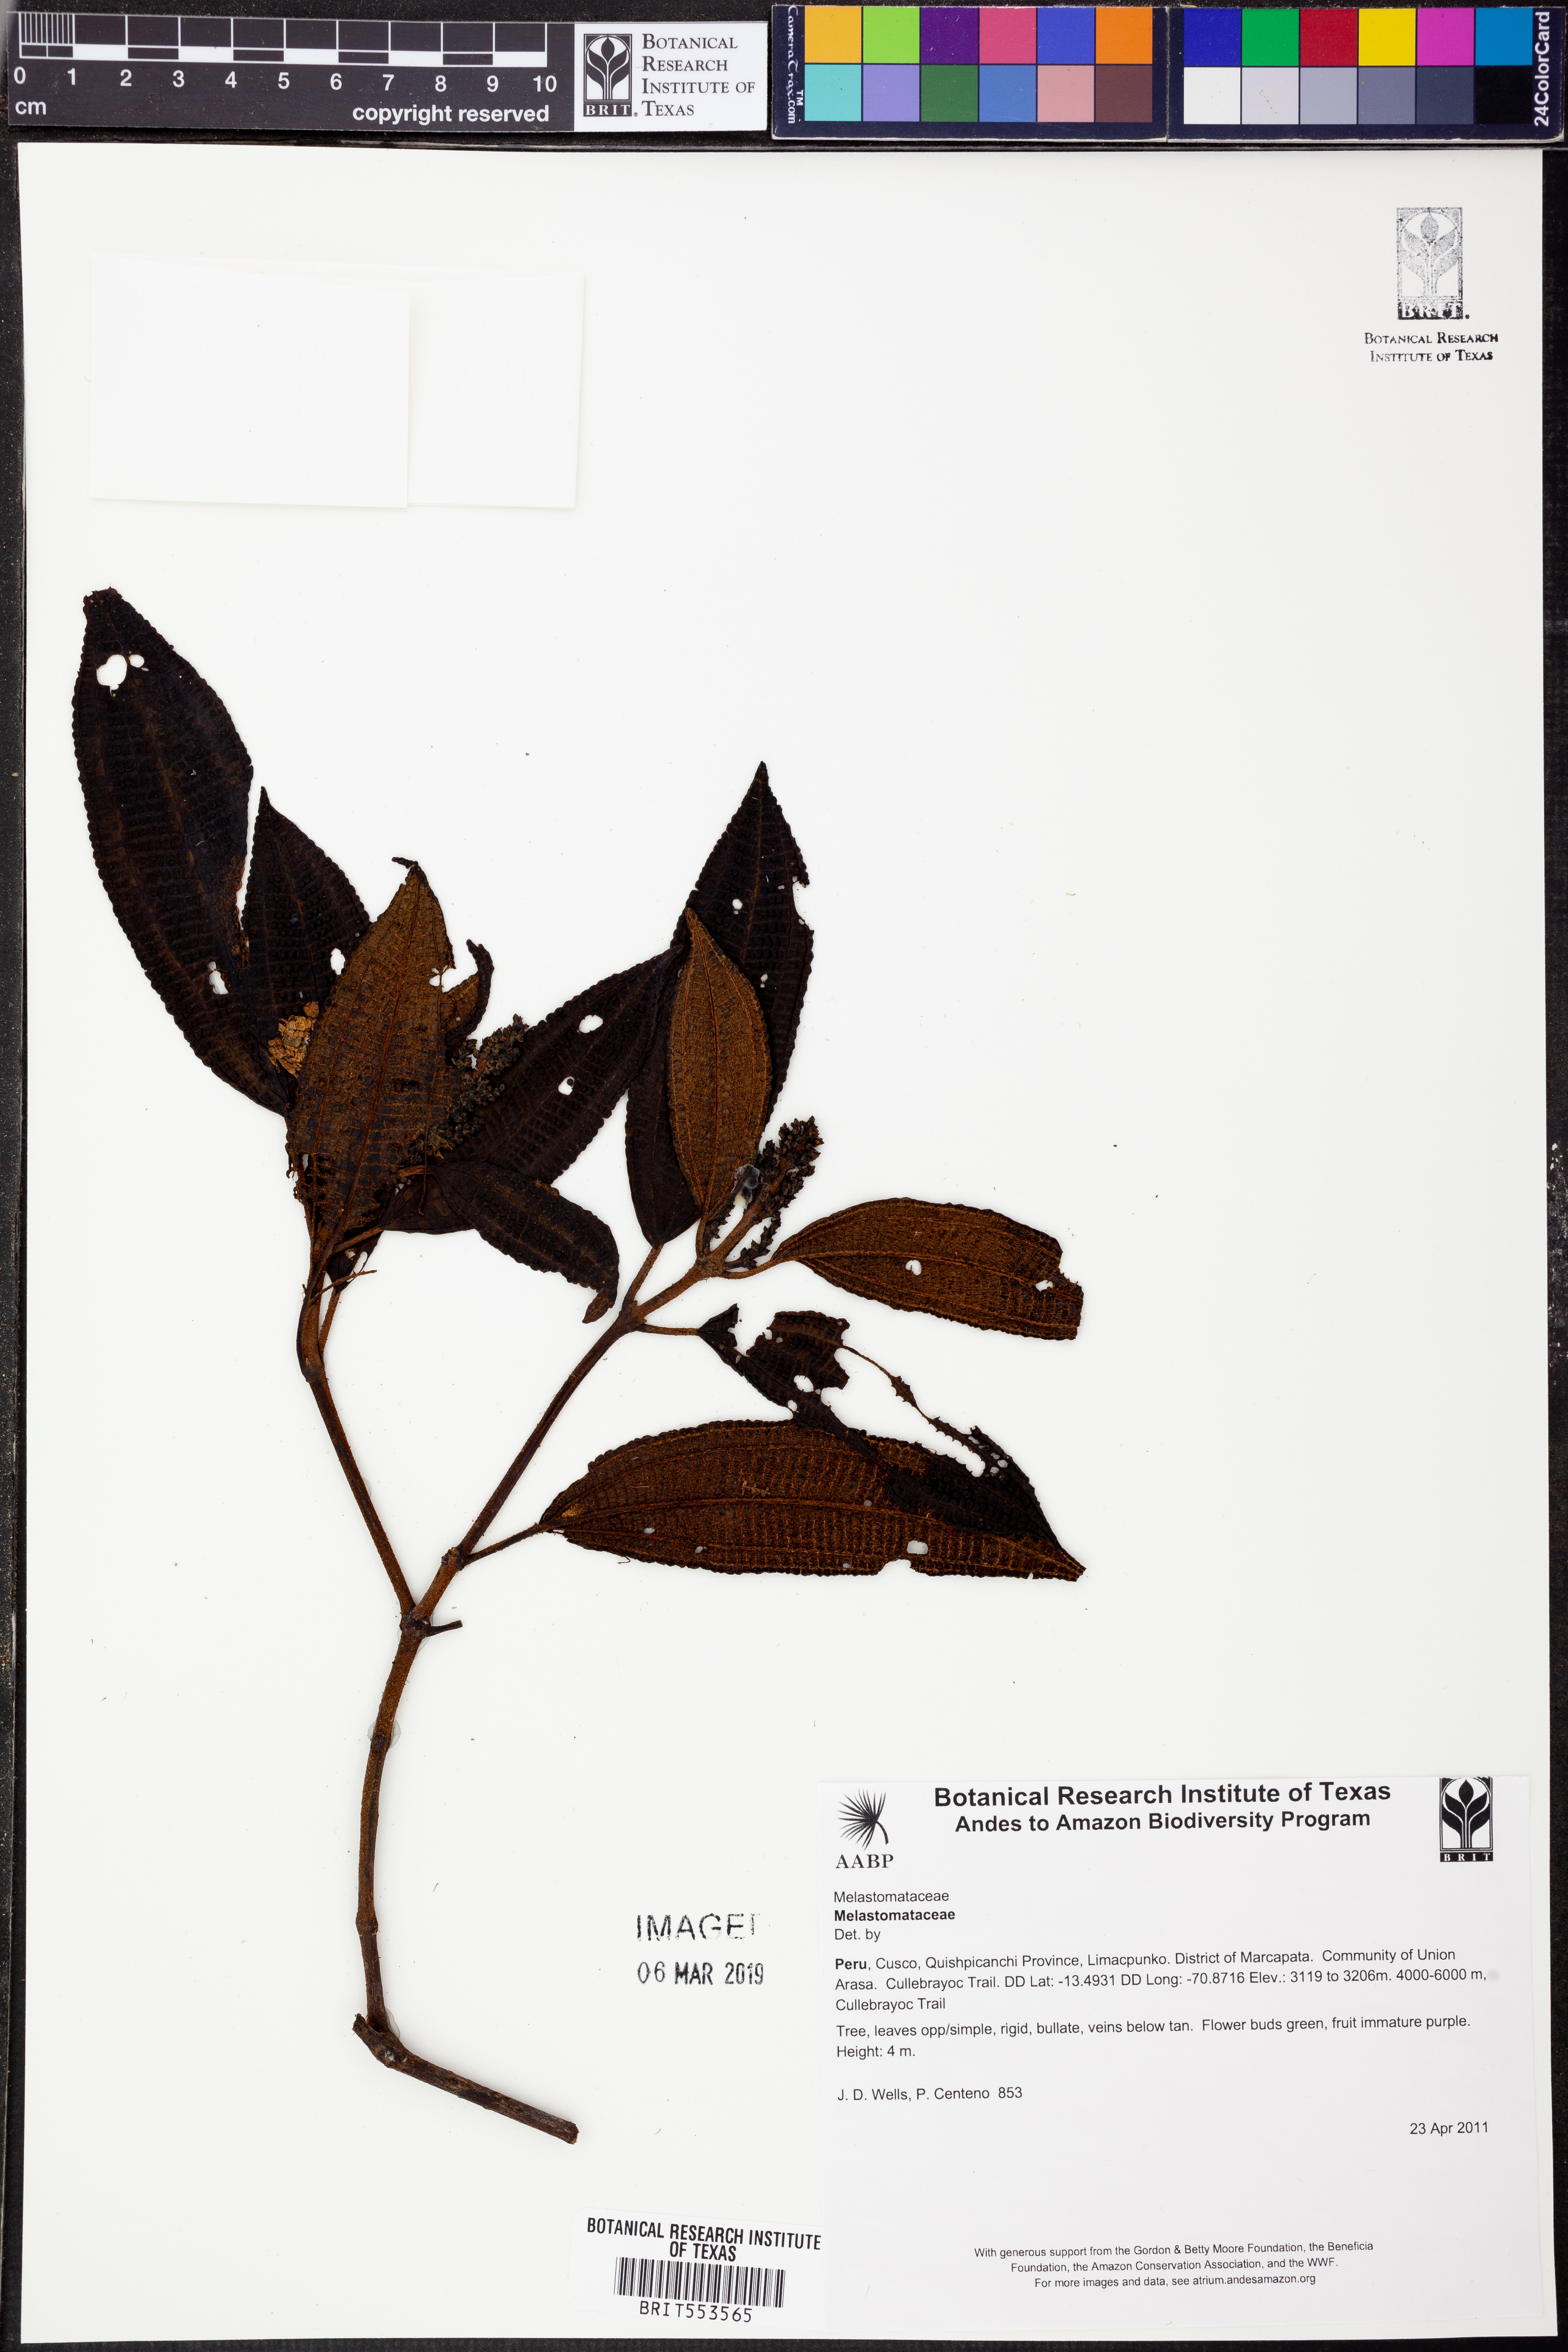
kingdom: Plantae
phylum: Tracheophyta
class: Magnoliopsida
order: Myrtales
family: Melastomataceae
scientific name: Melastomataceae
